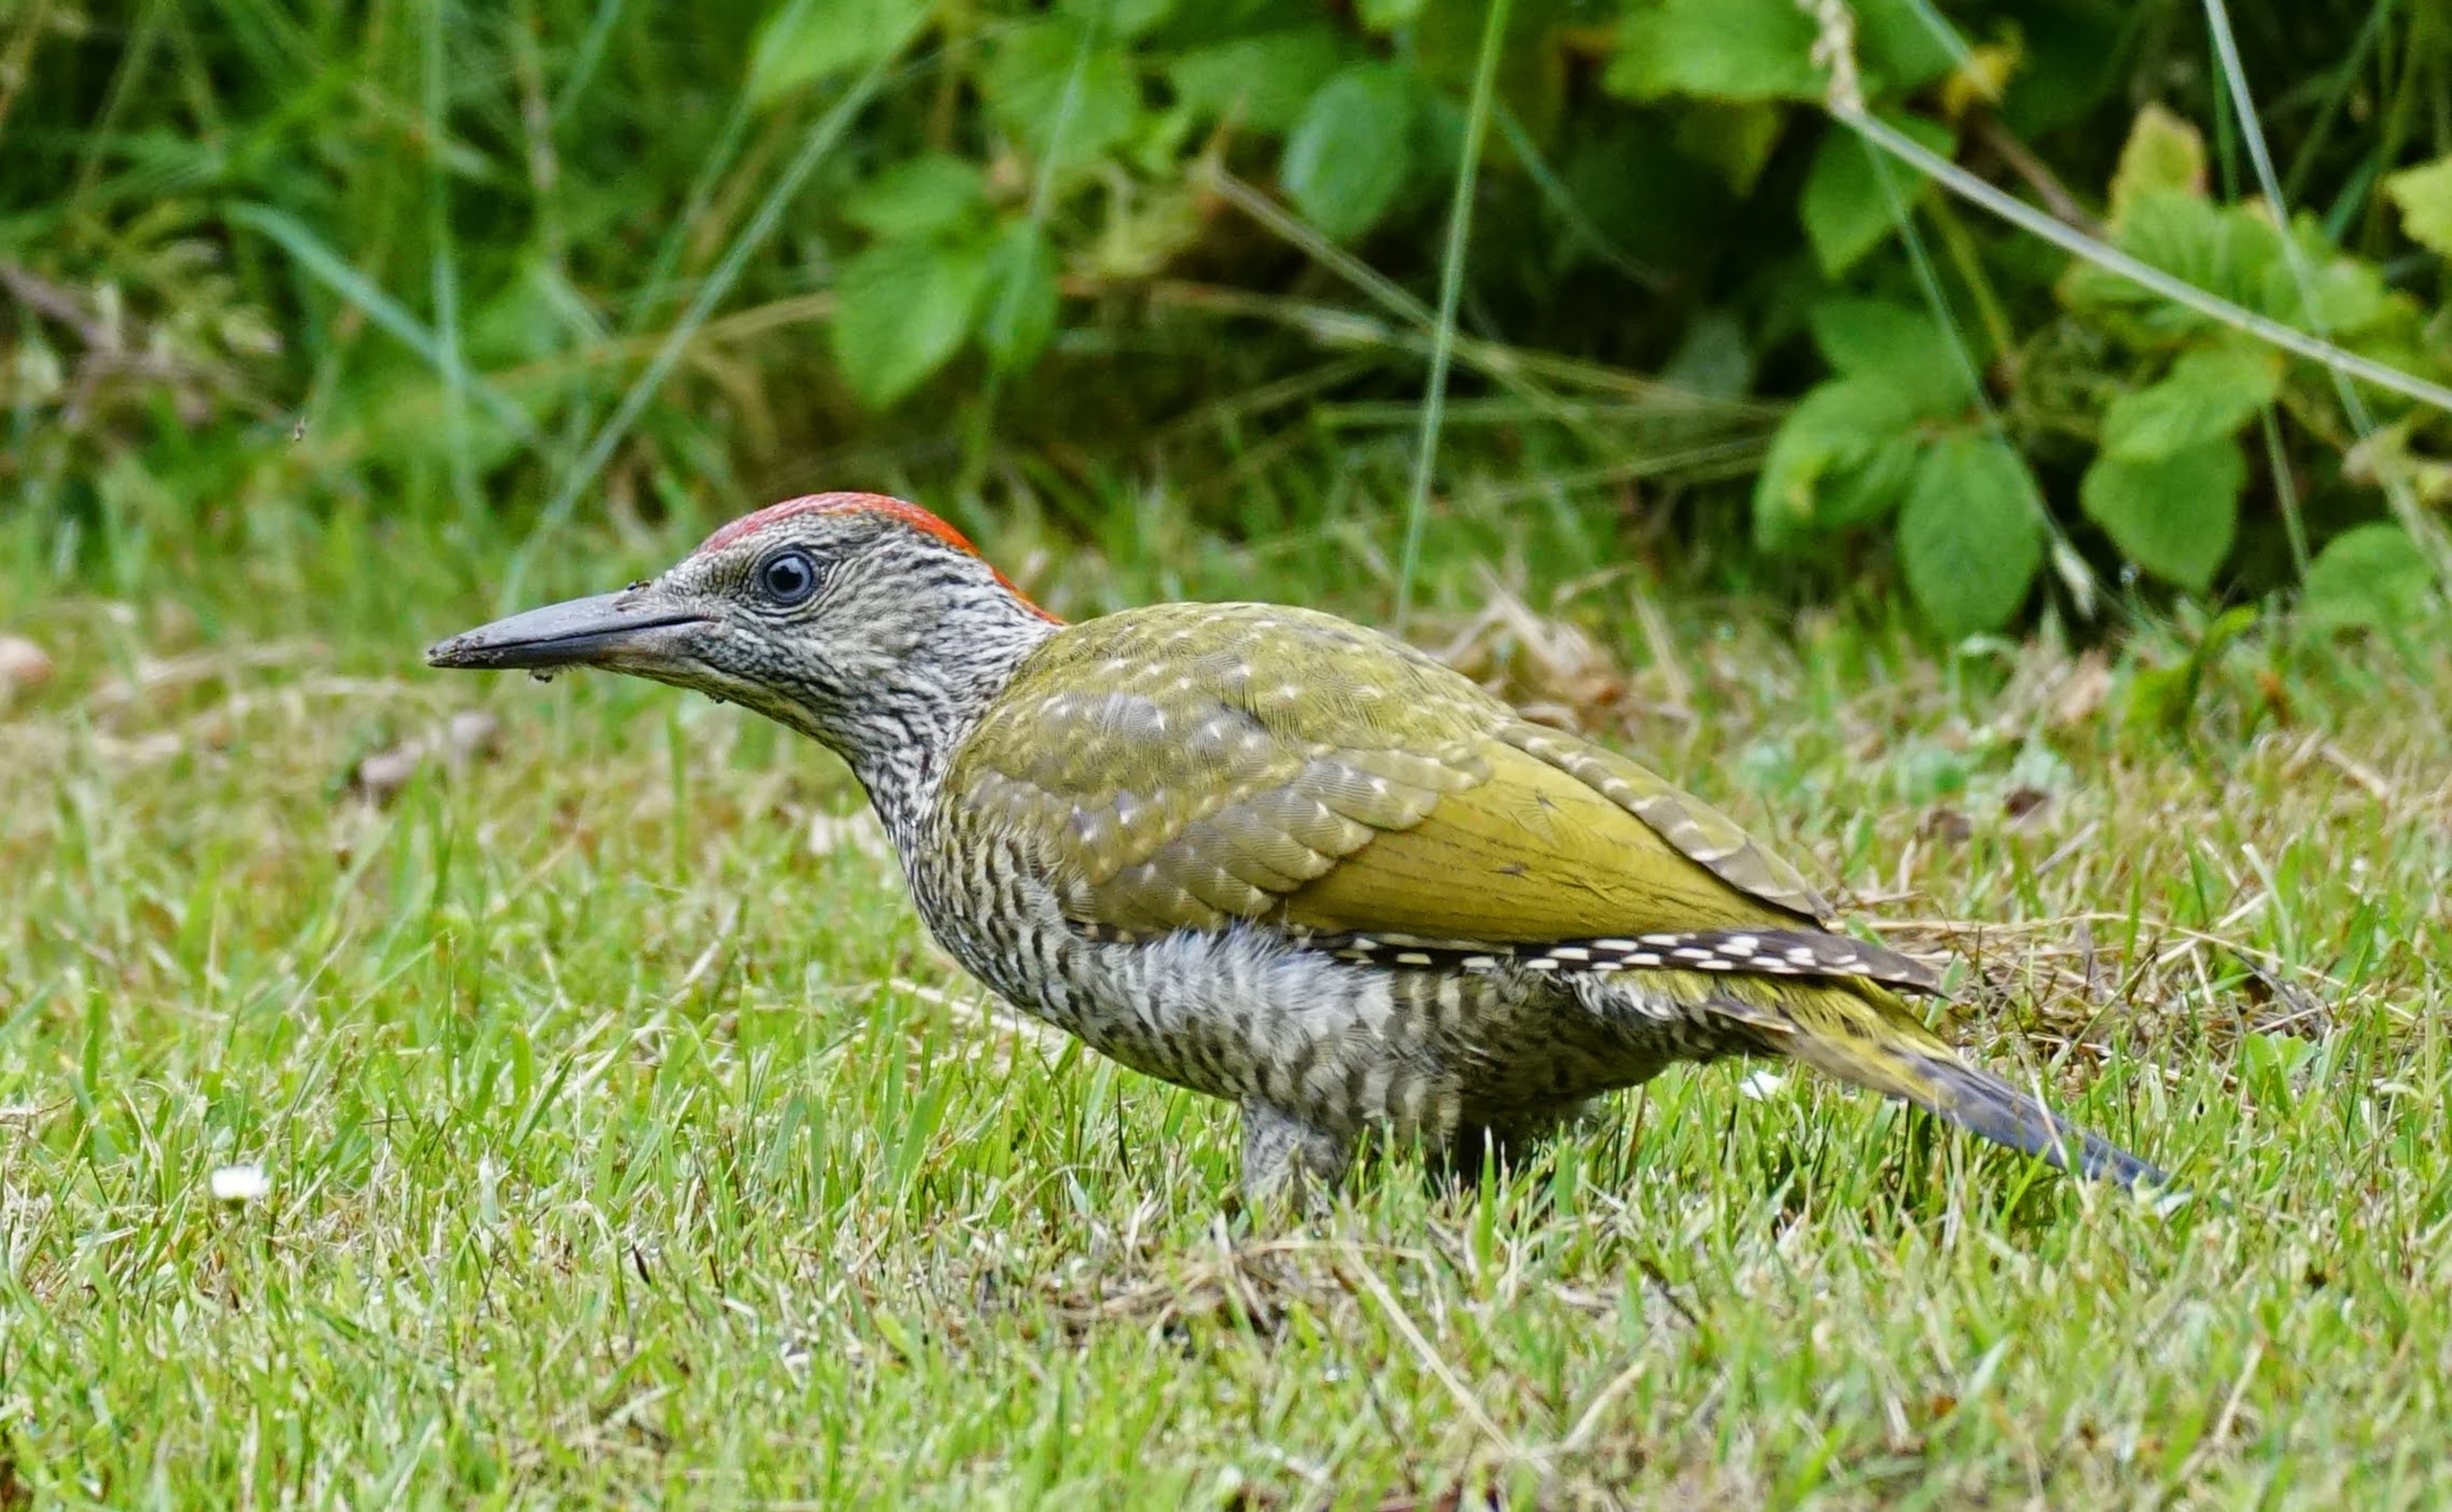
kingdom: Animalia
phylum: Chordata
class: Aves
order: Piciformes
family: Picidae
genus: Picus
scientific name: Picus viridis
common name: Grønspætte
